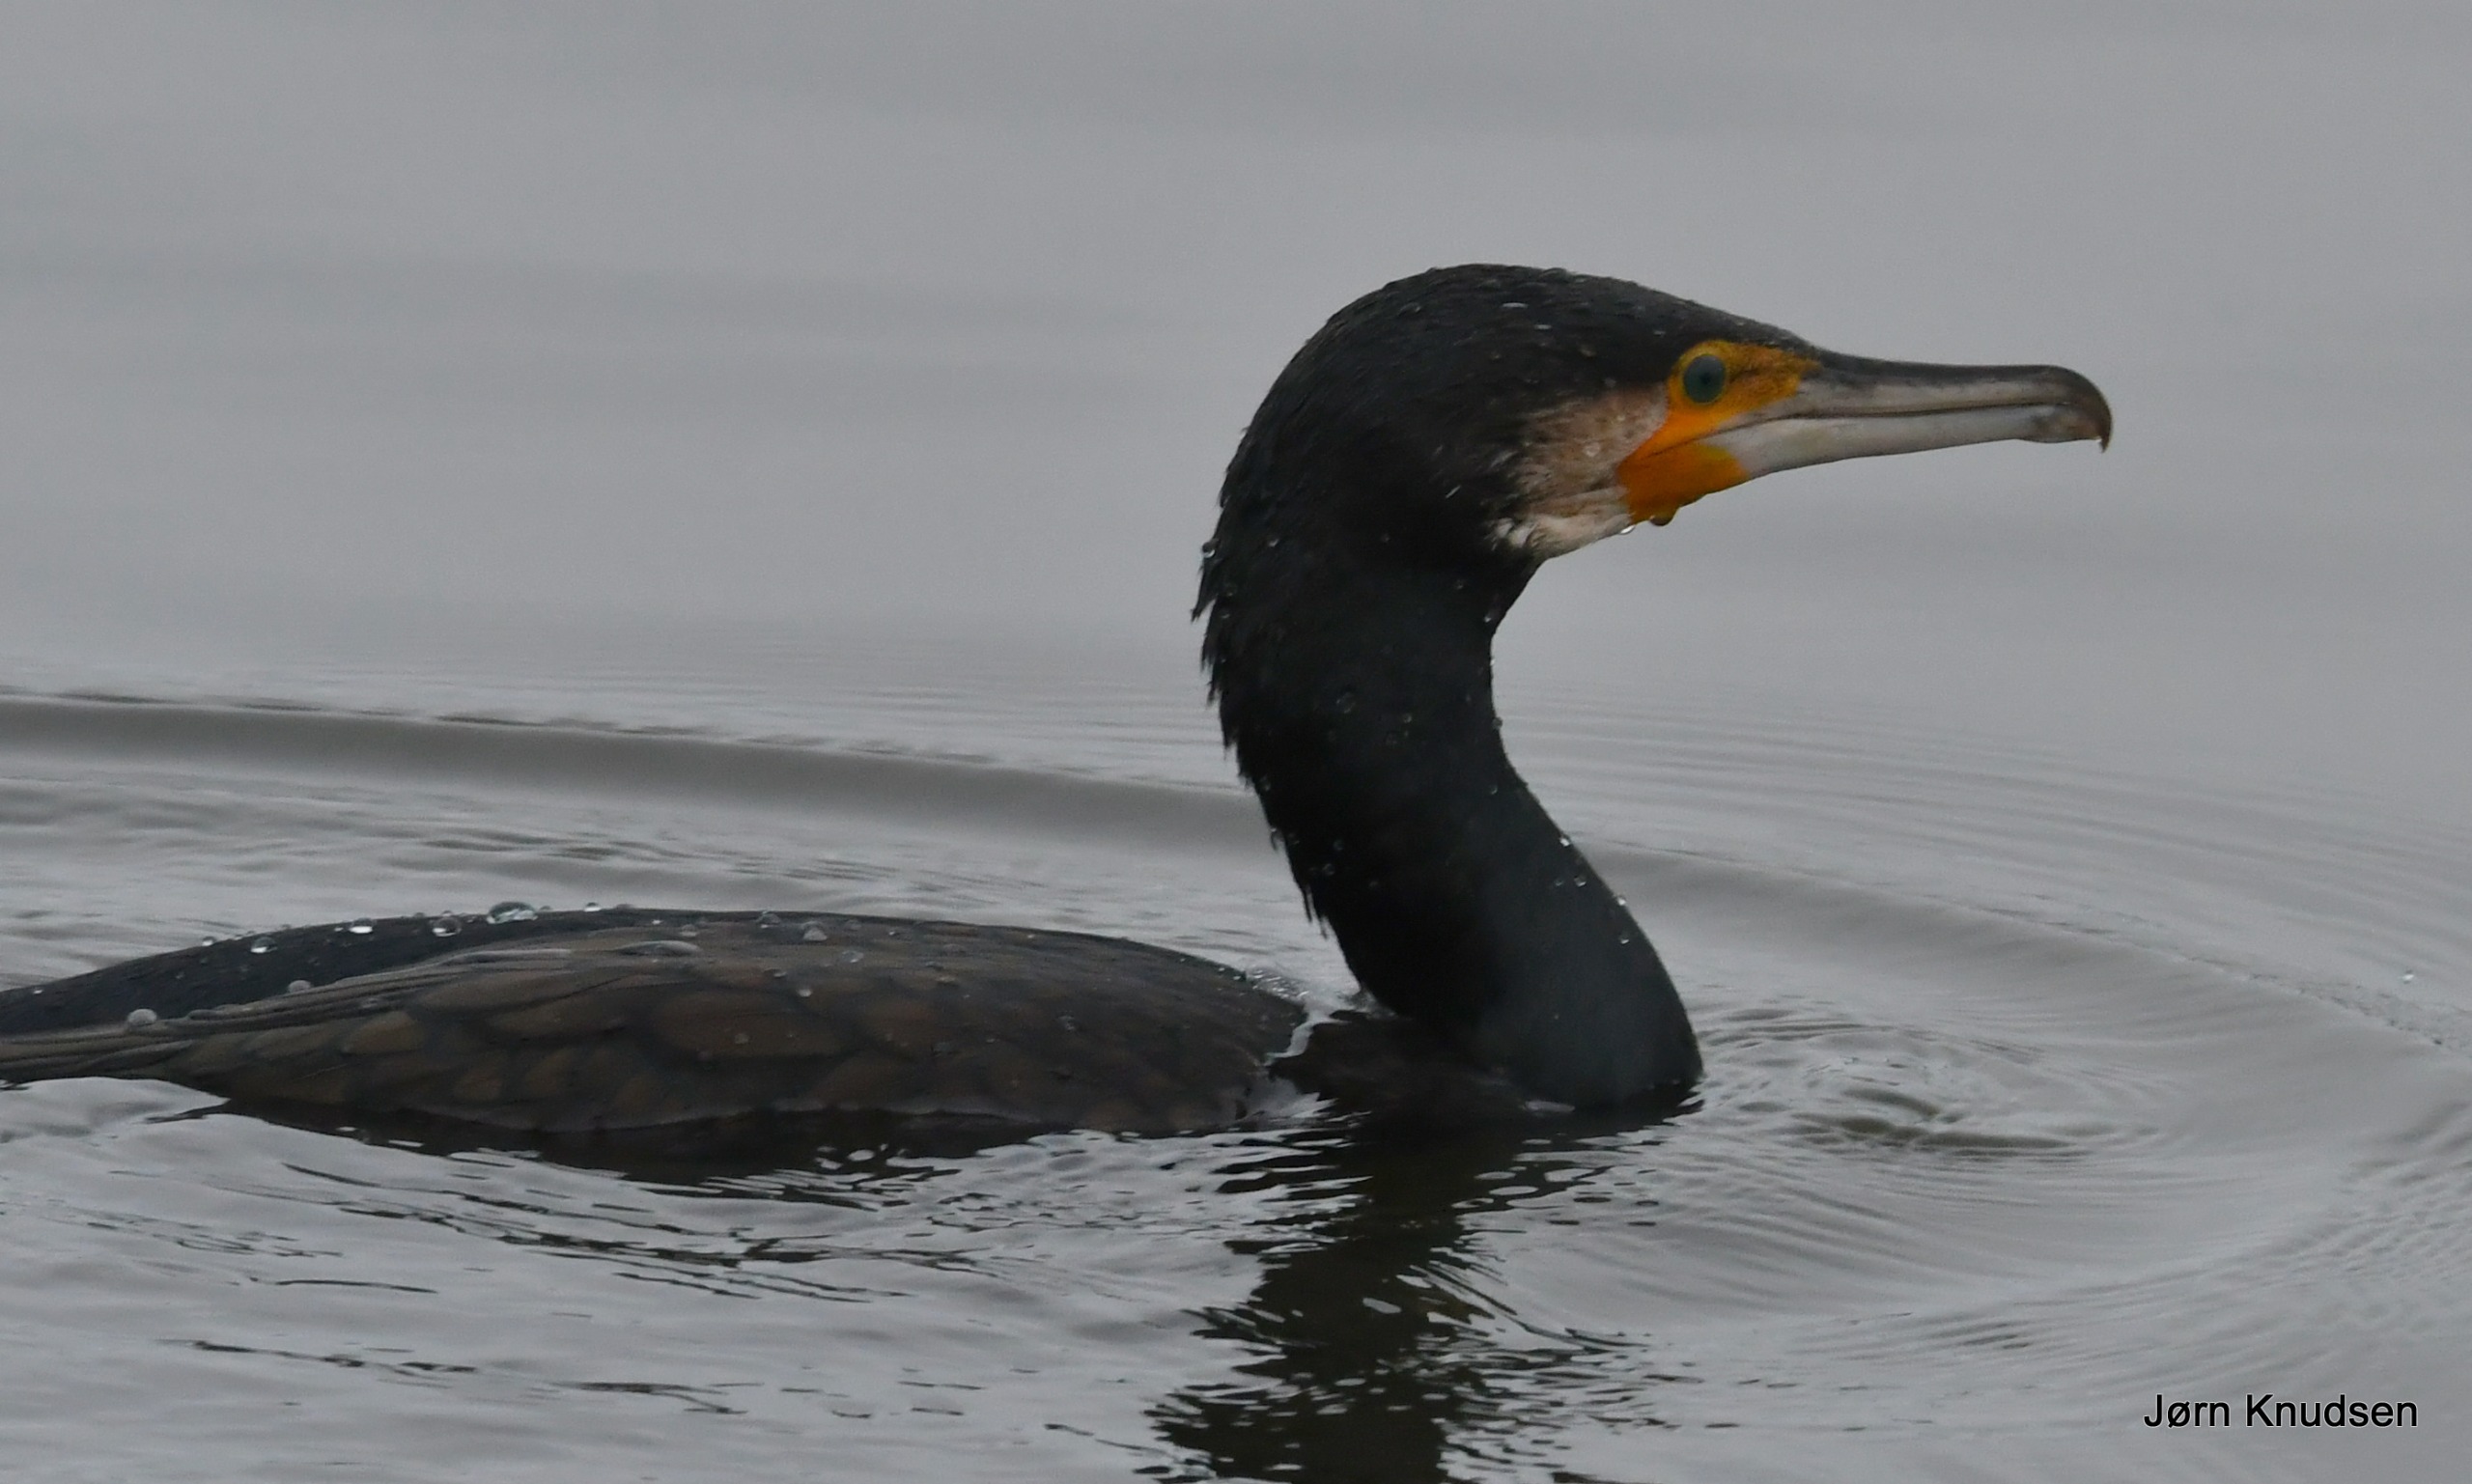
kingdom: Animalia
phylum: Chordata
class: Aves
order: Suliformes
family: Phalacrocoracidae
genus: Phalacrocorax
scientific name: Phalacrocorax carbo
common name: Skarv
